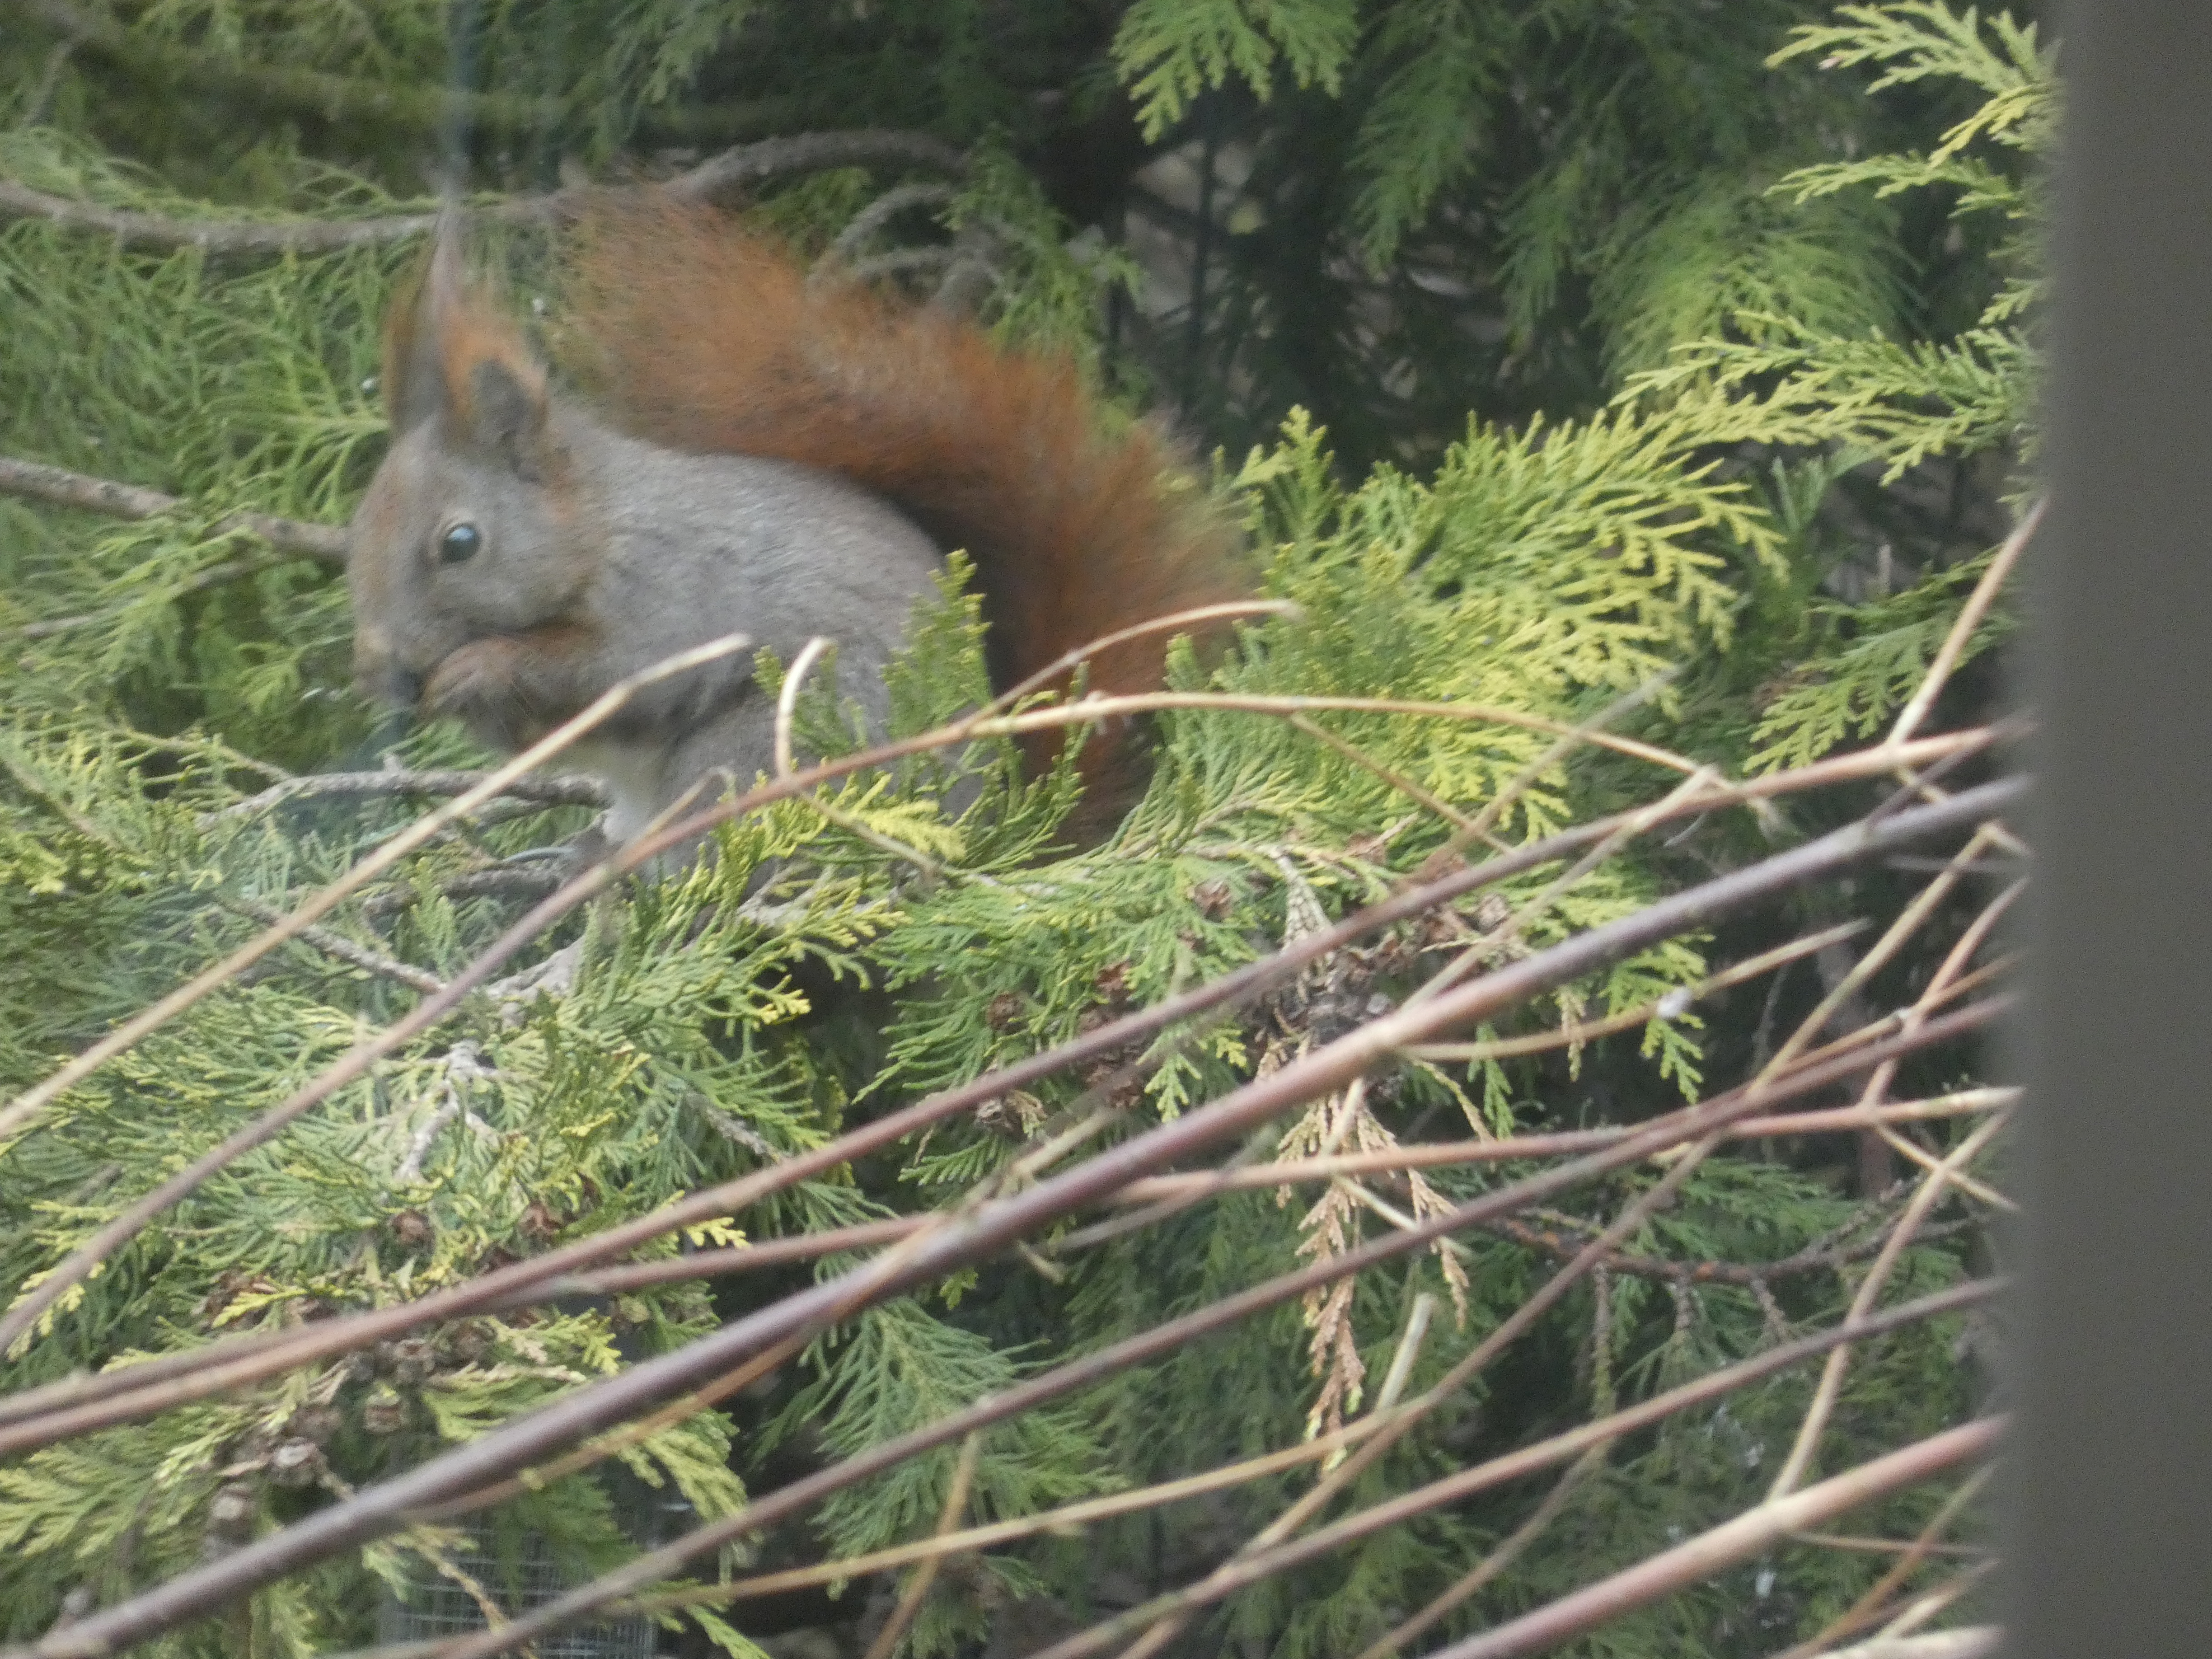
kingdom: Animalia
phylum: Chordata
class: Mammalia
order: Rodentia
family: Sciuridae
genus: Sciurus
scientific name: Sciurus vulgaris
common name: Egern
